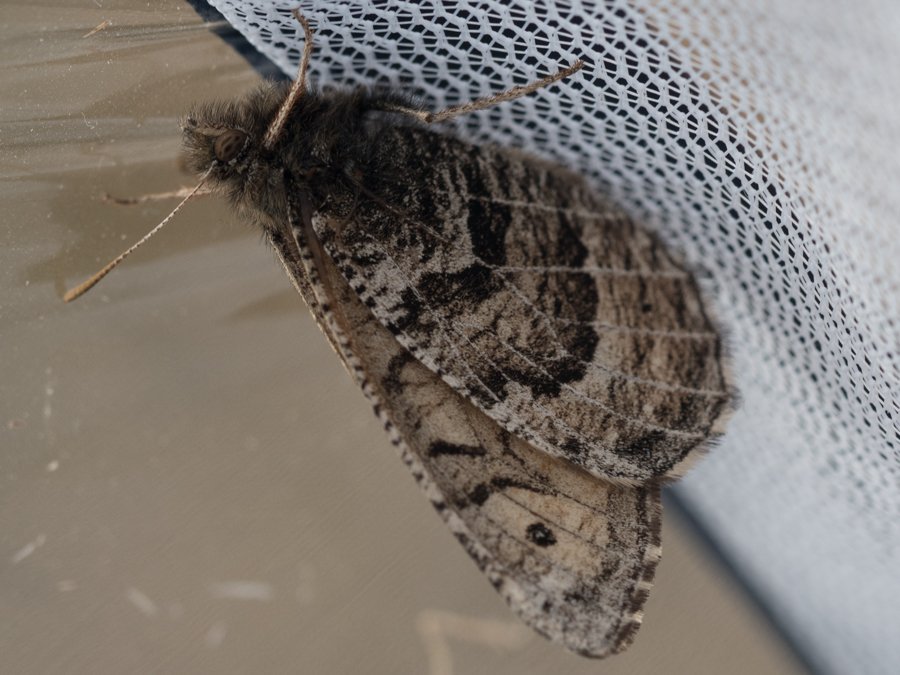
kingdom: Animalia
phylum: Arthropoda
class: Insecta
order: Lepidoptera
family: Nymphalidae
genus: Oeneis
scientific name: Oeneis alberta
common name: Alberta Arctic
